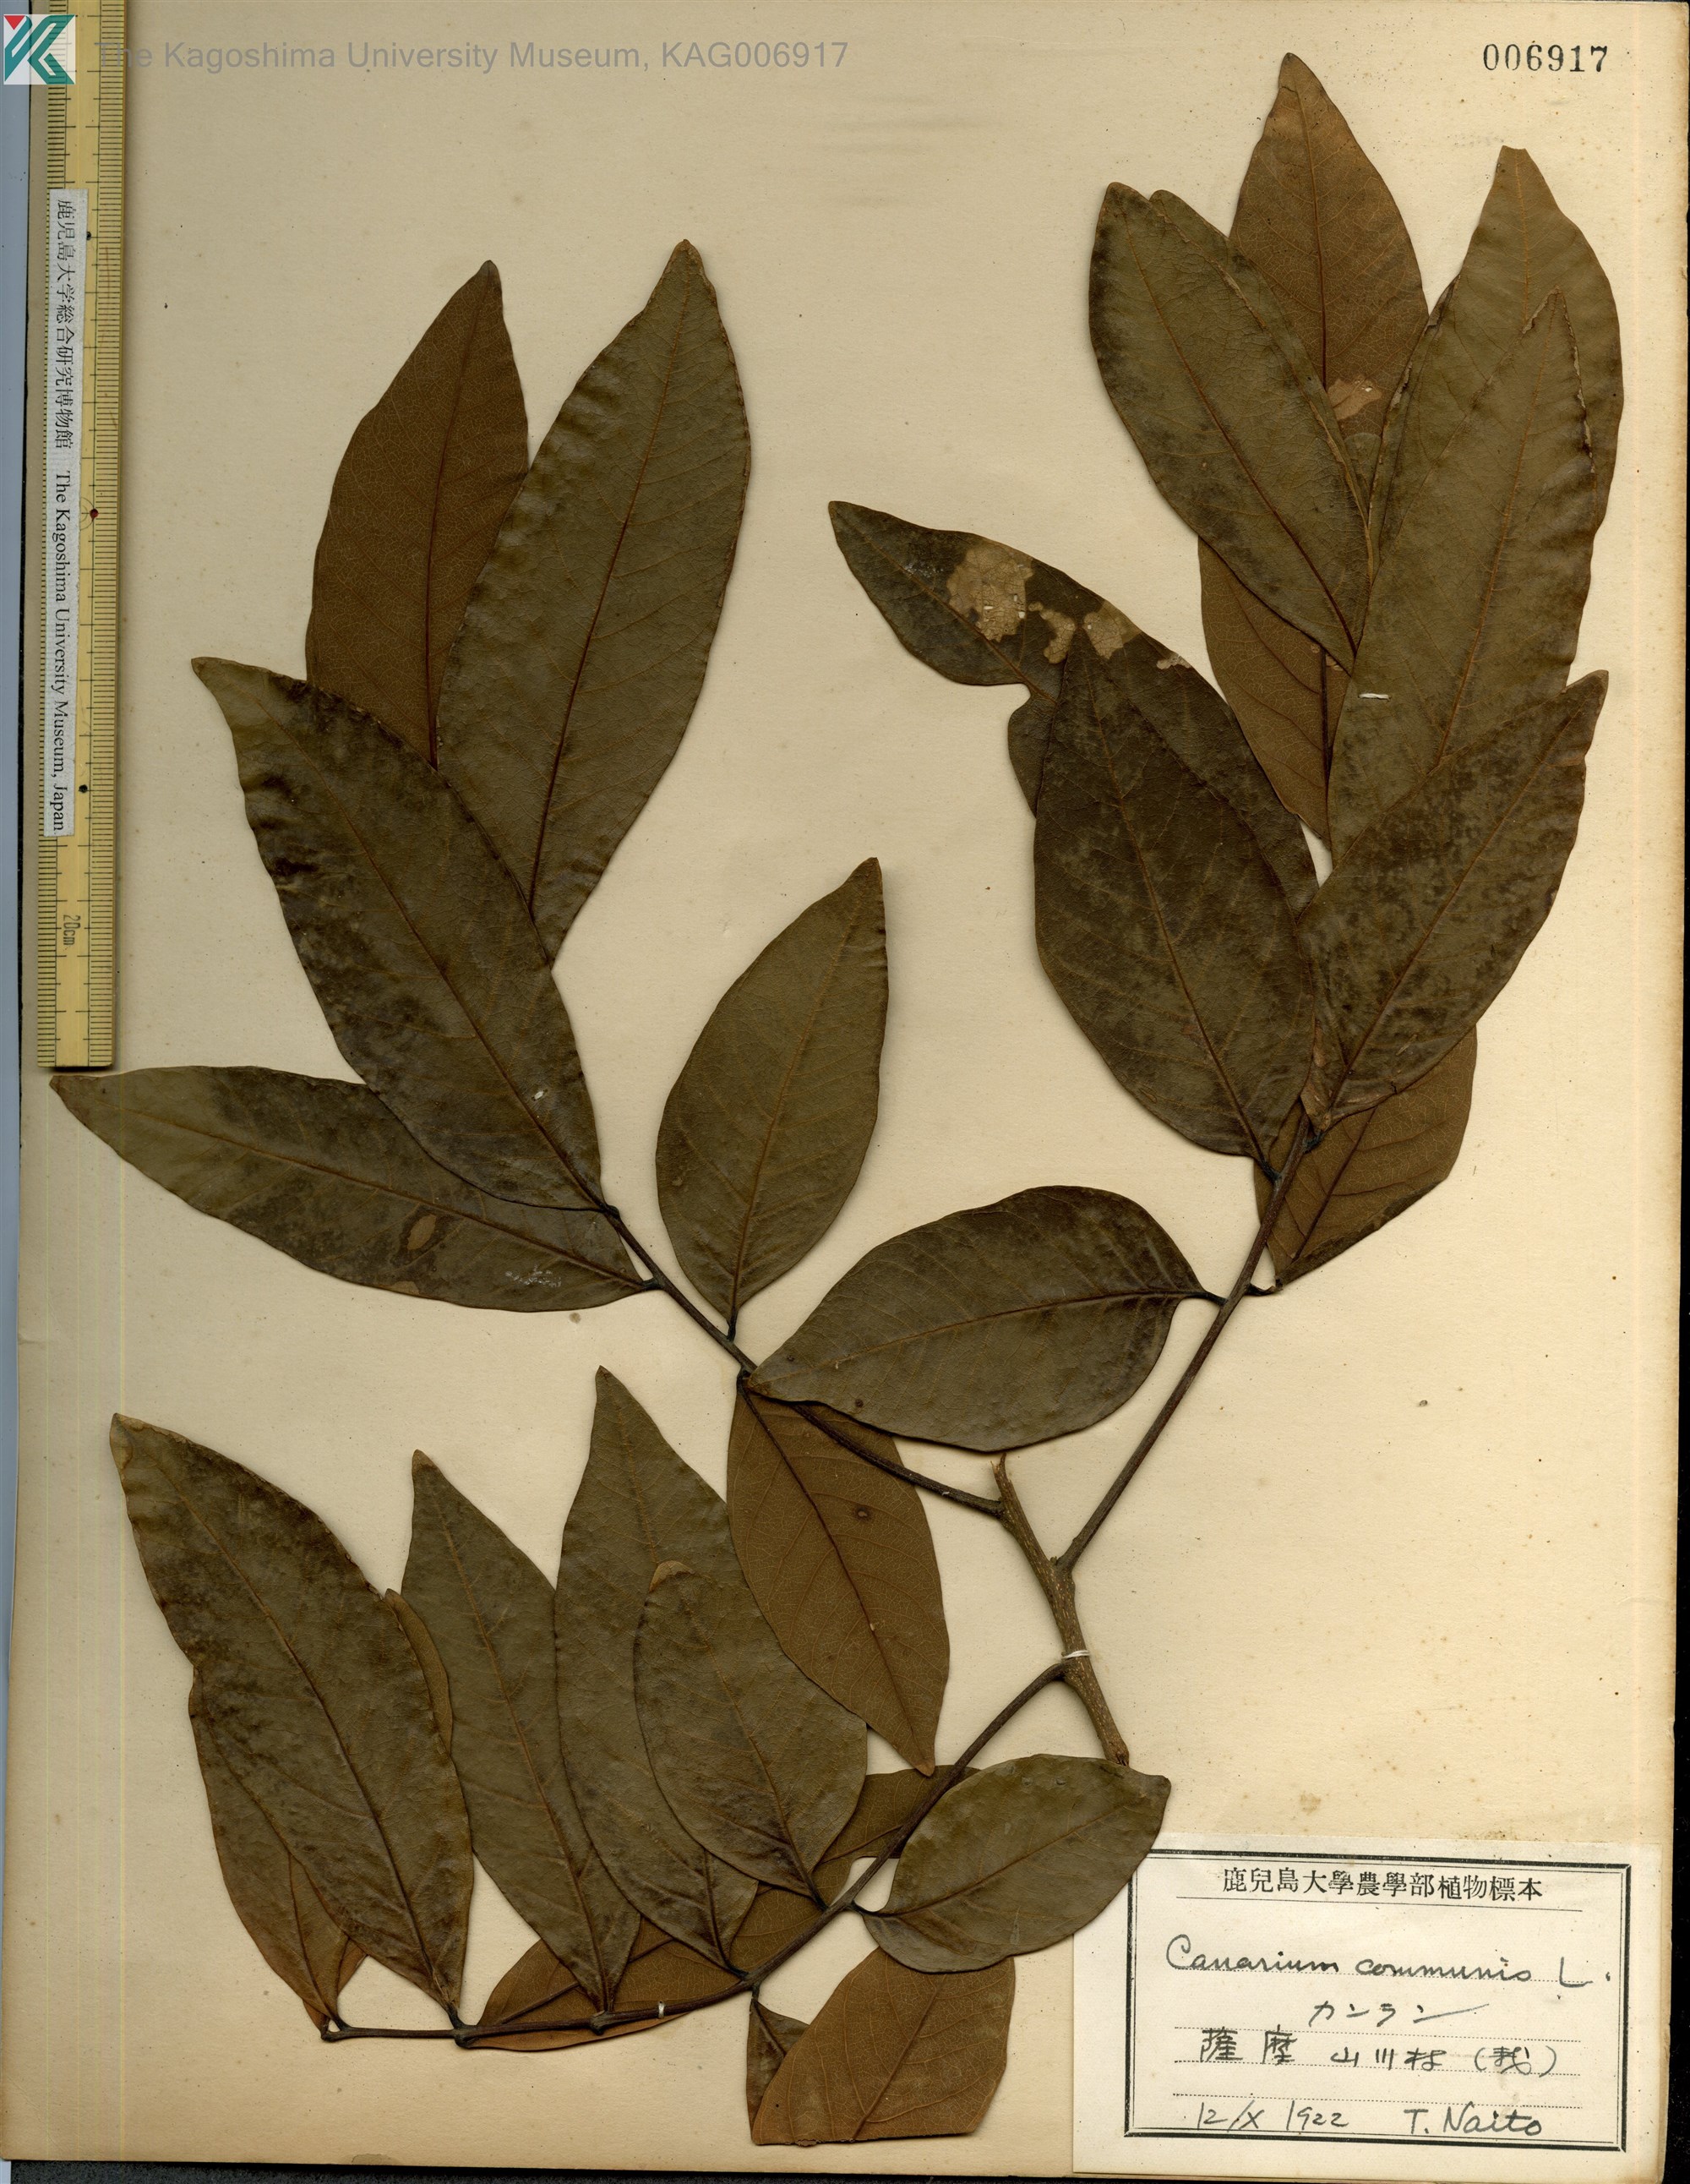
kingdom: Plantae
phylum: Tracheophyta
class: Magnoliopsida
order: Sapindales
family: Burseraceae
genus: Canarium
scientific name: Canarium album
